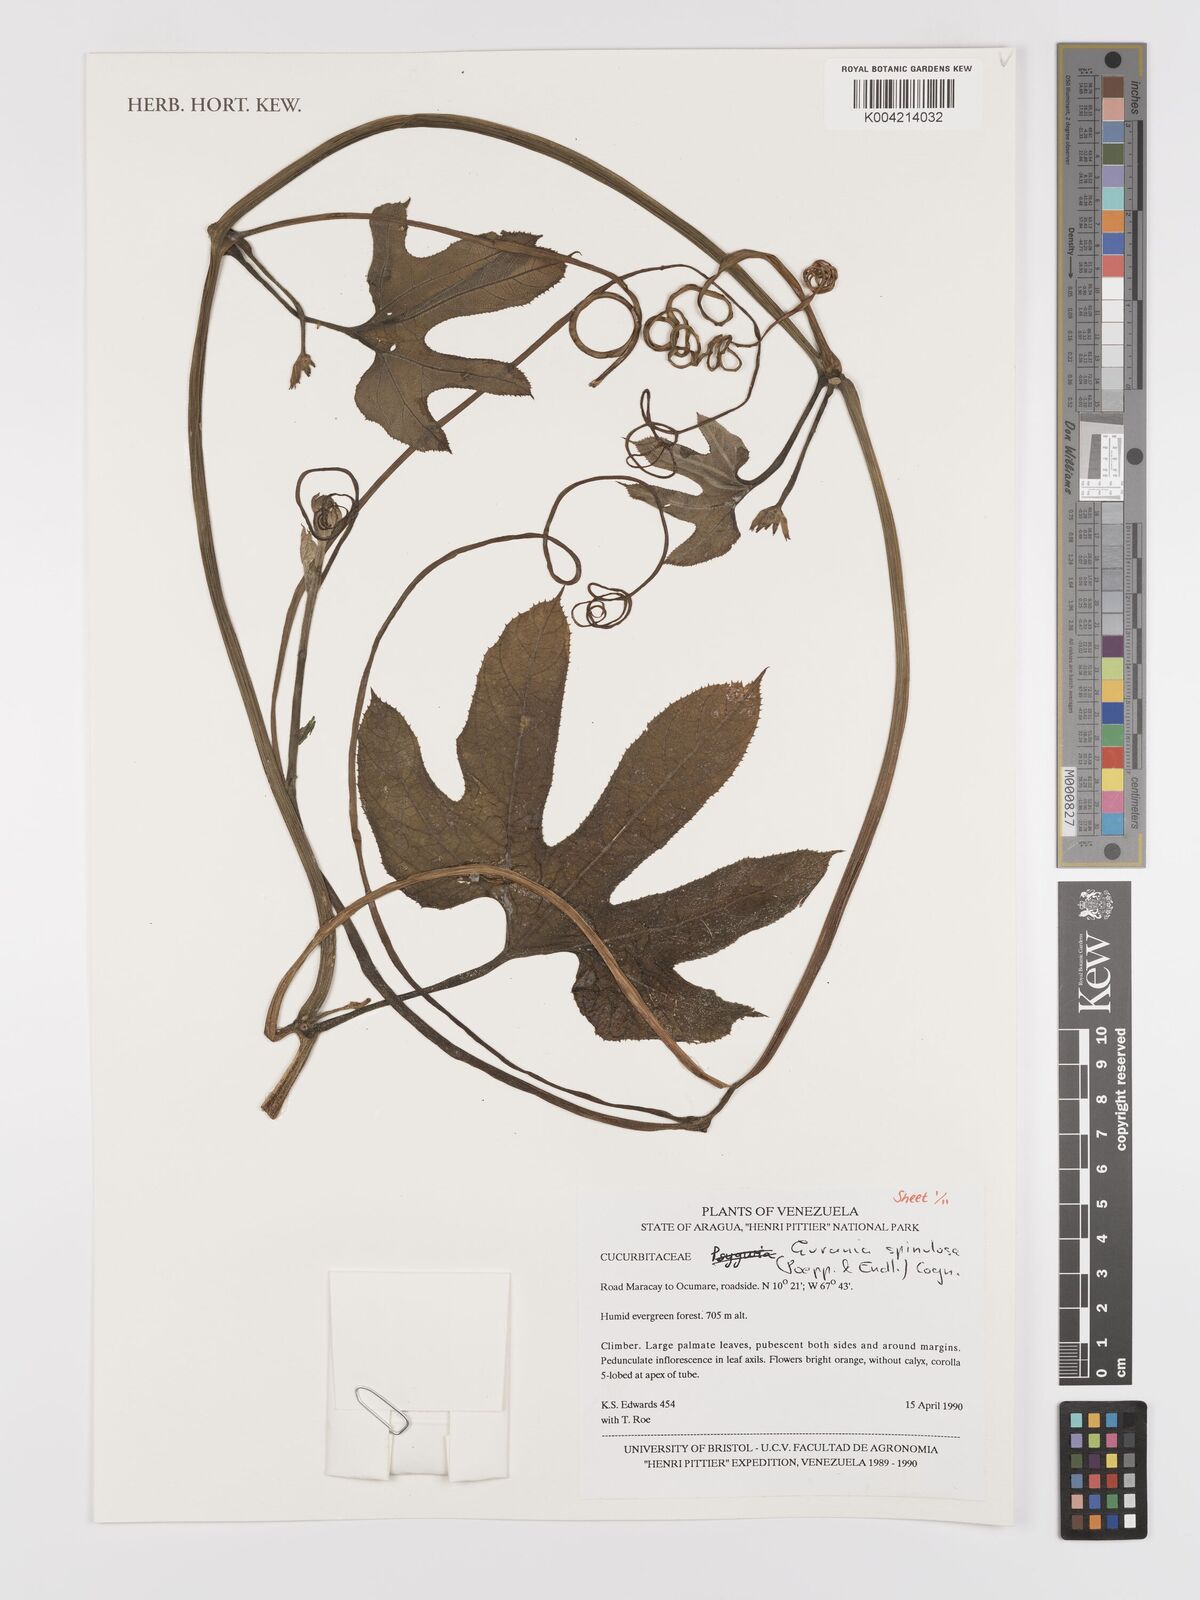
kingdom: Plantae
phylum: Tracheophyta
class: Magnoliopsida
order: Cucurbitales
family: Cucurbitaceae
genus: Gurania
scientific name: Gurania lobata
